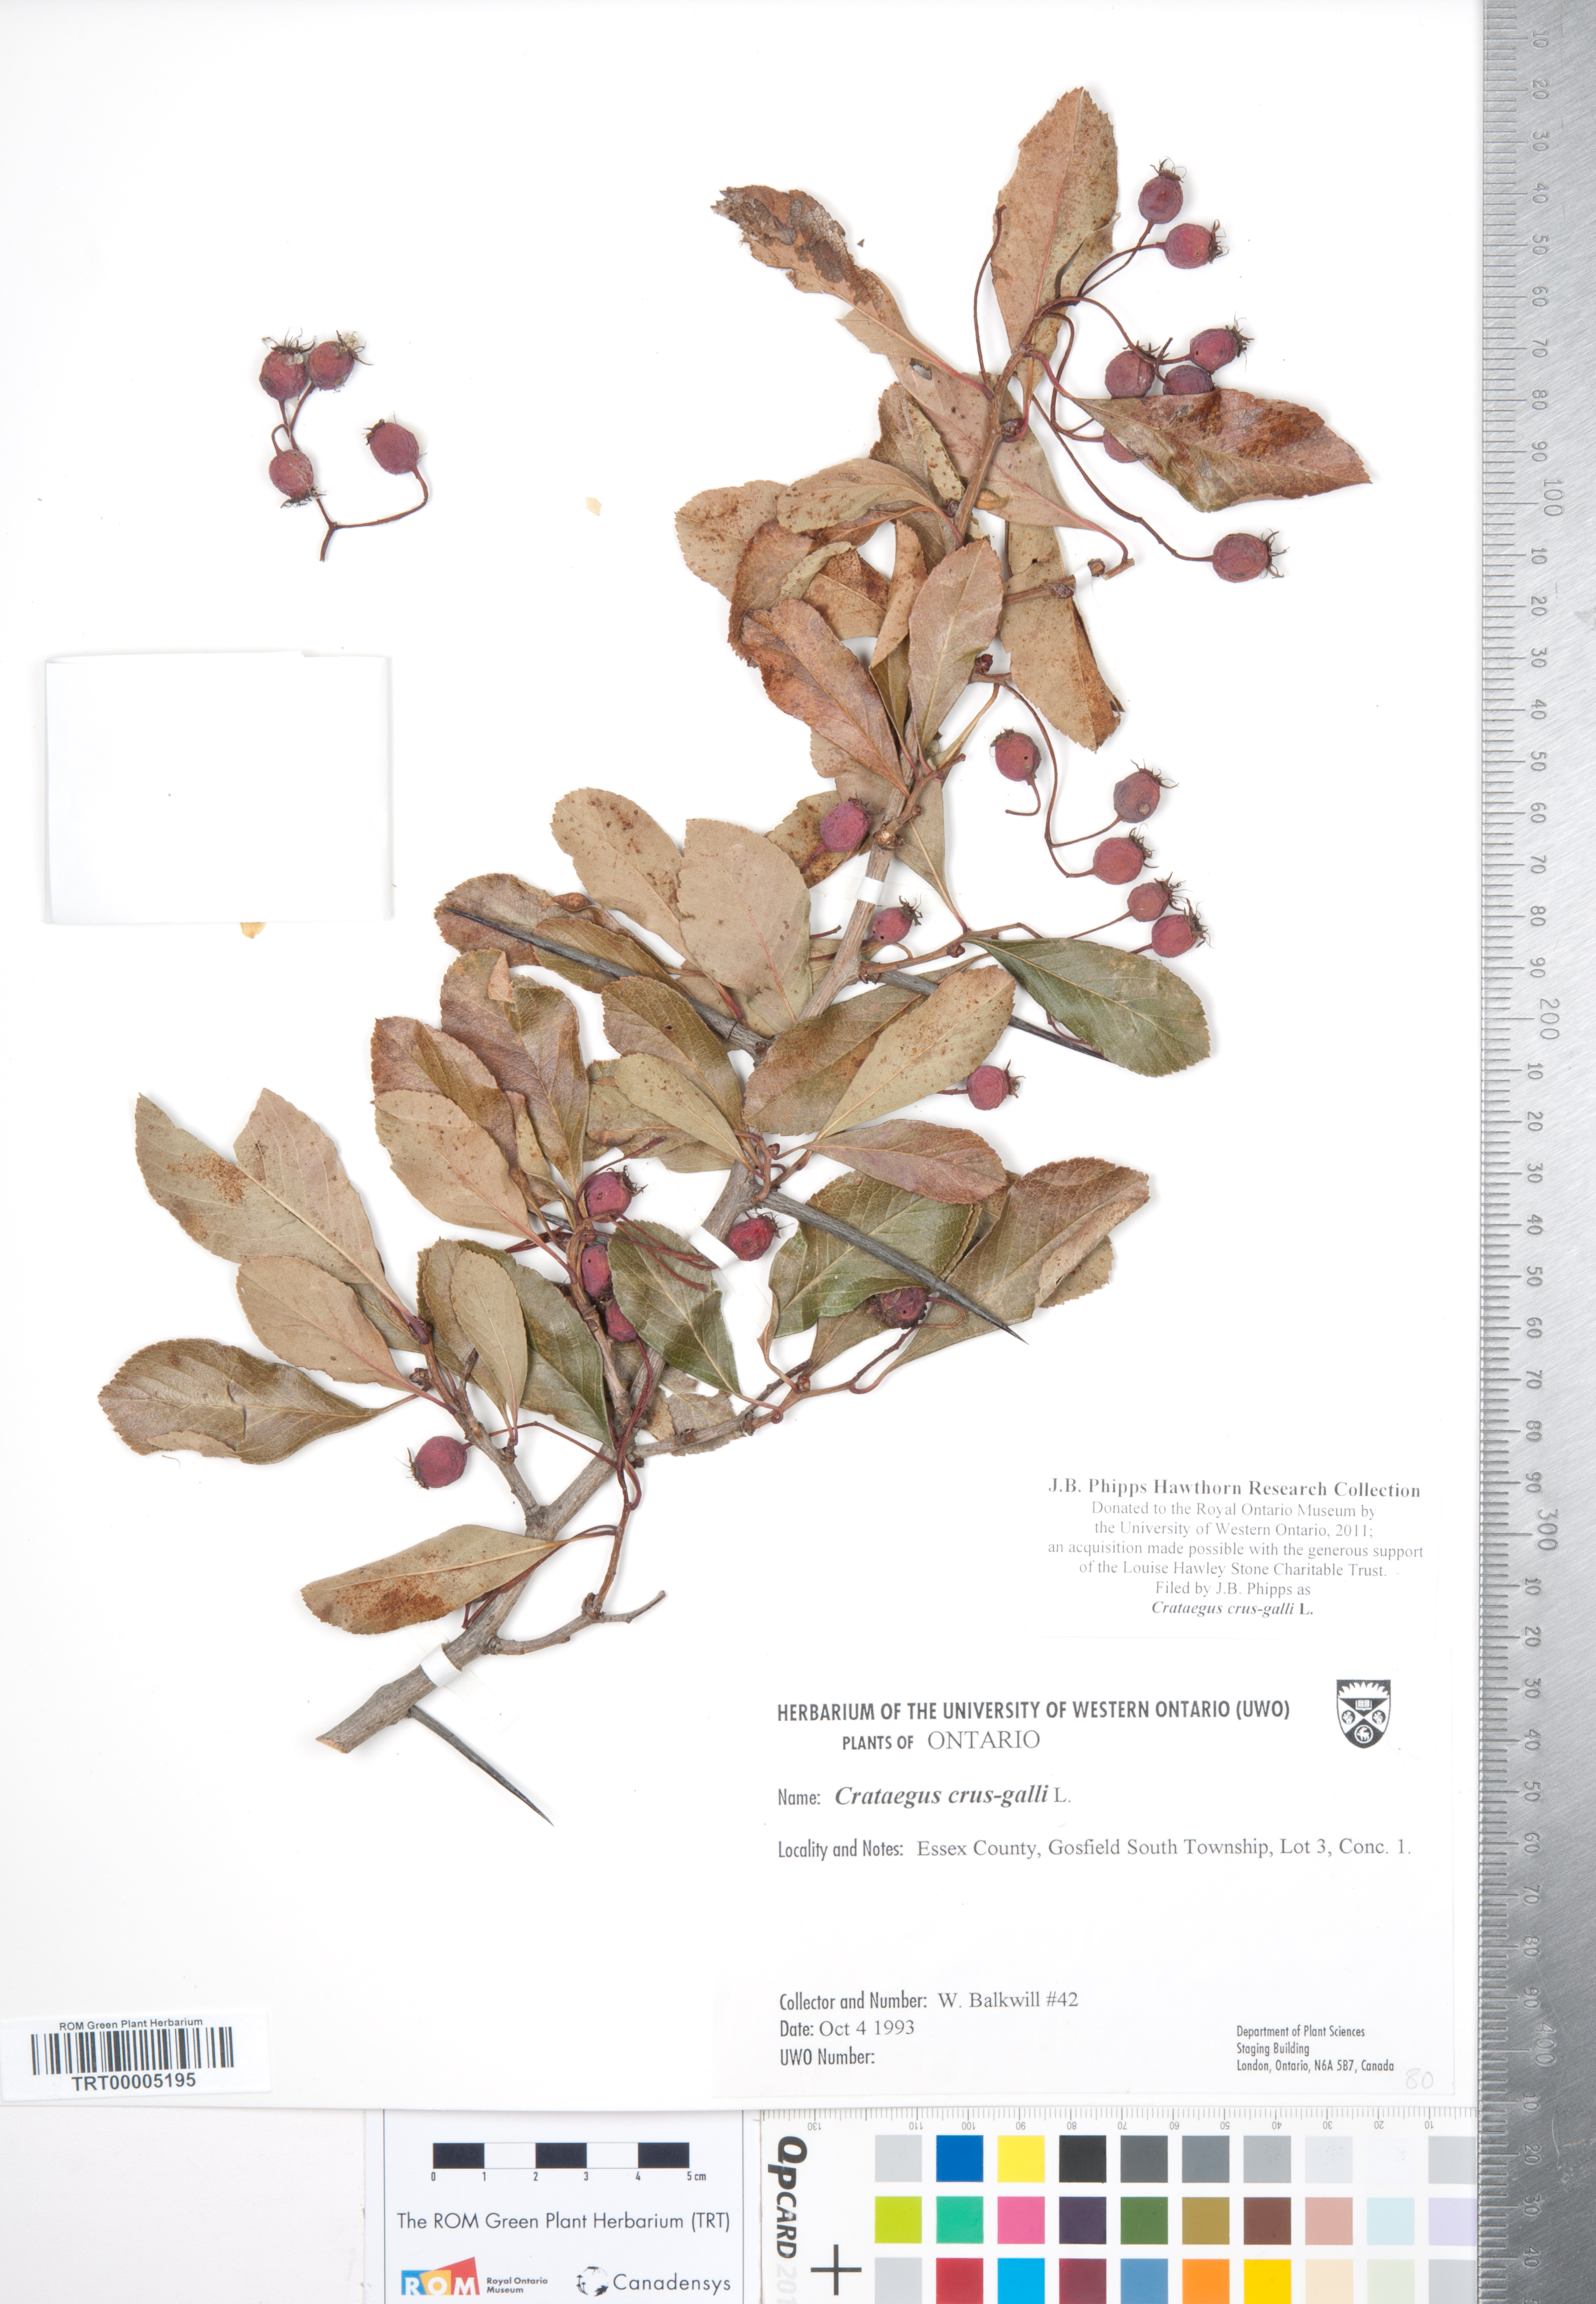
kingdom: Plantae
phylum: Tracheophyta
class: Magnoliopsida
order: Rosales
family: Rosaceae
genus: Crataegus
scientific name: Crataegus crus-galli
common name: Cockspurthorn
